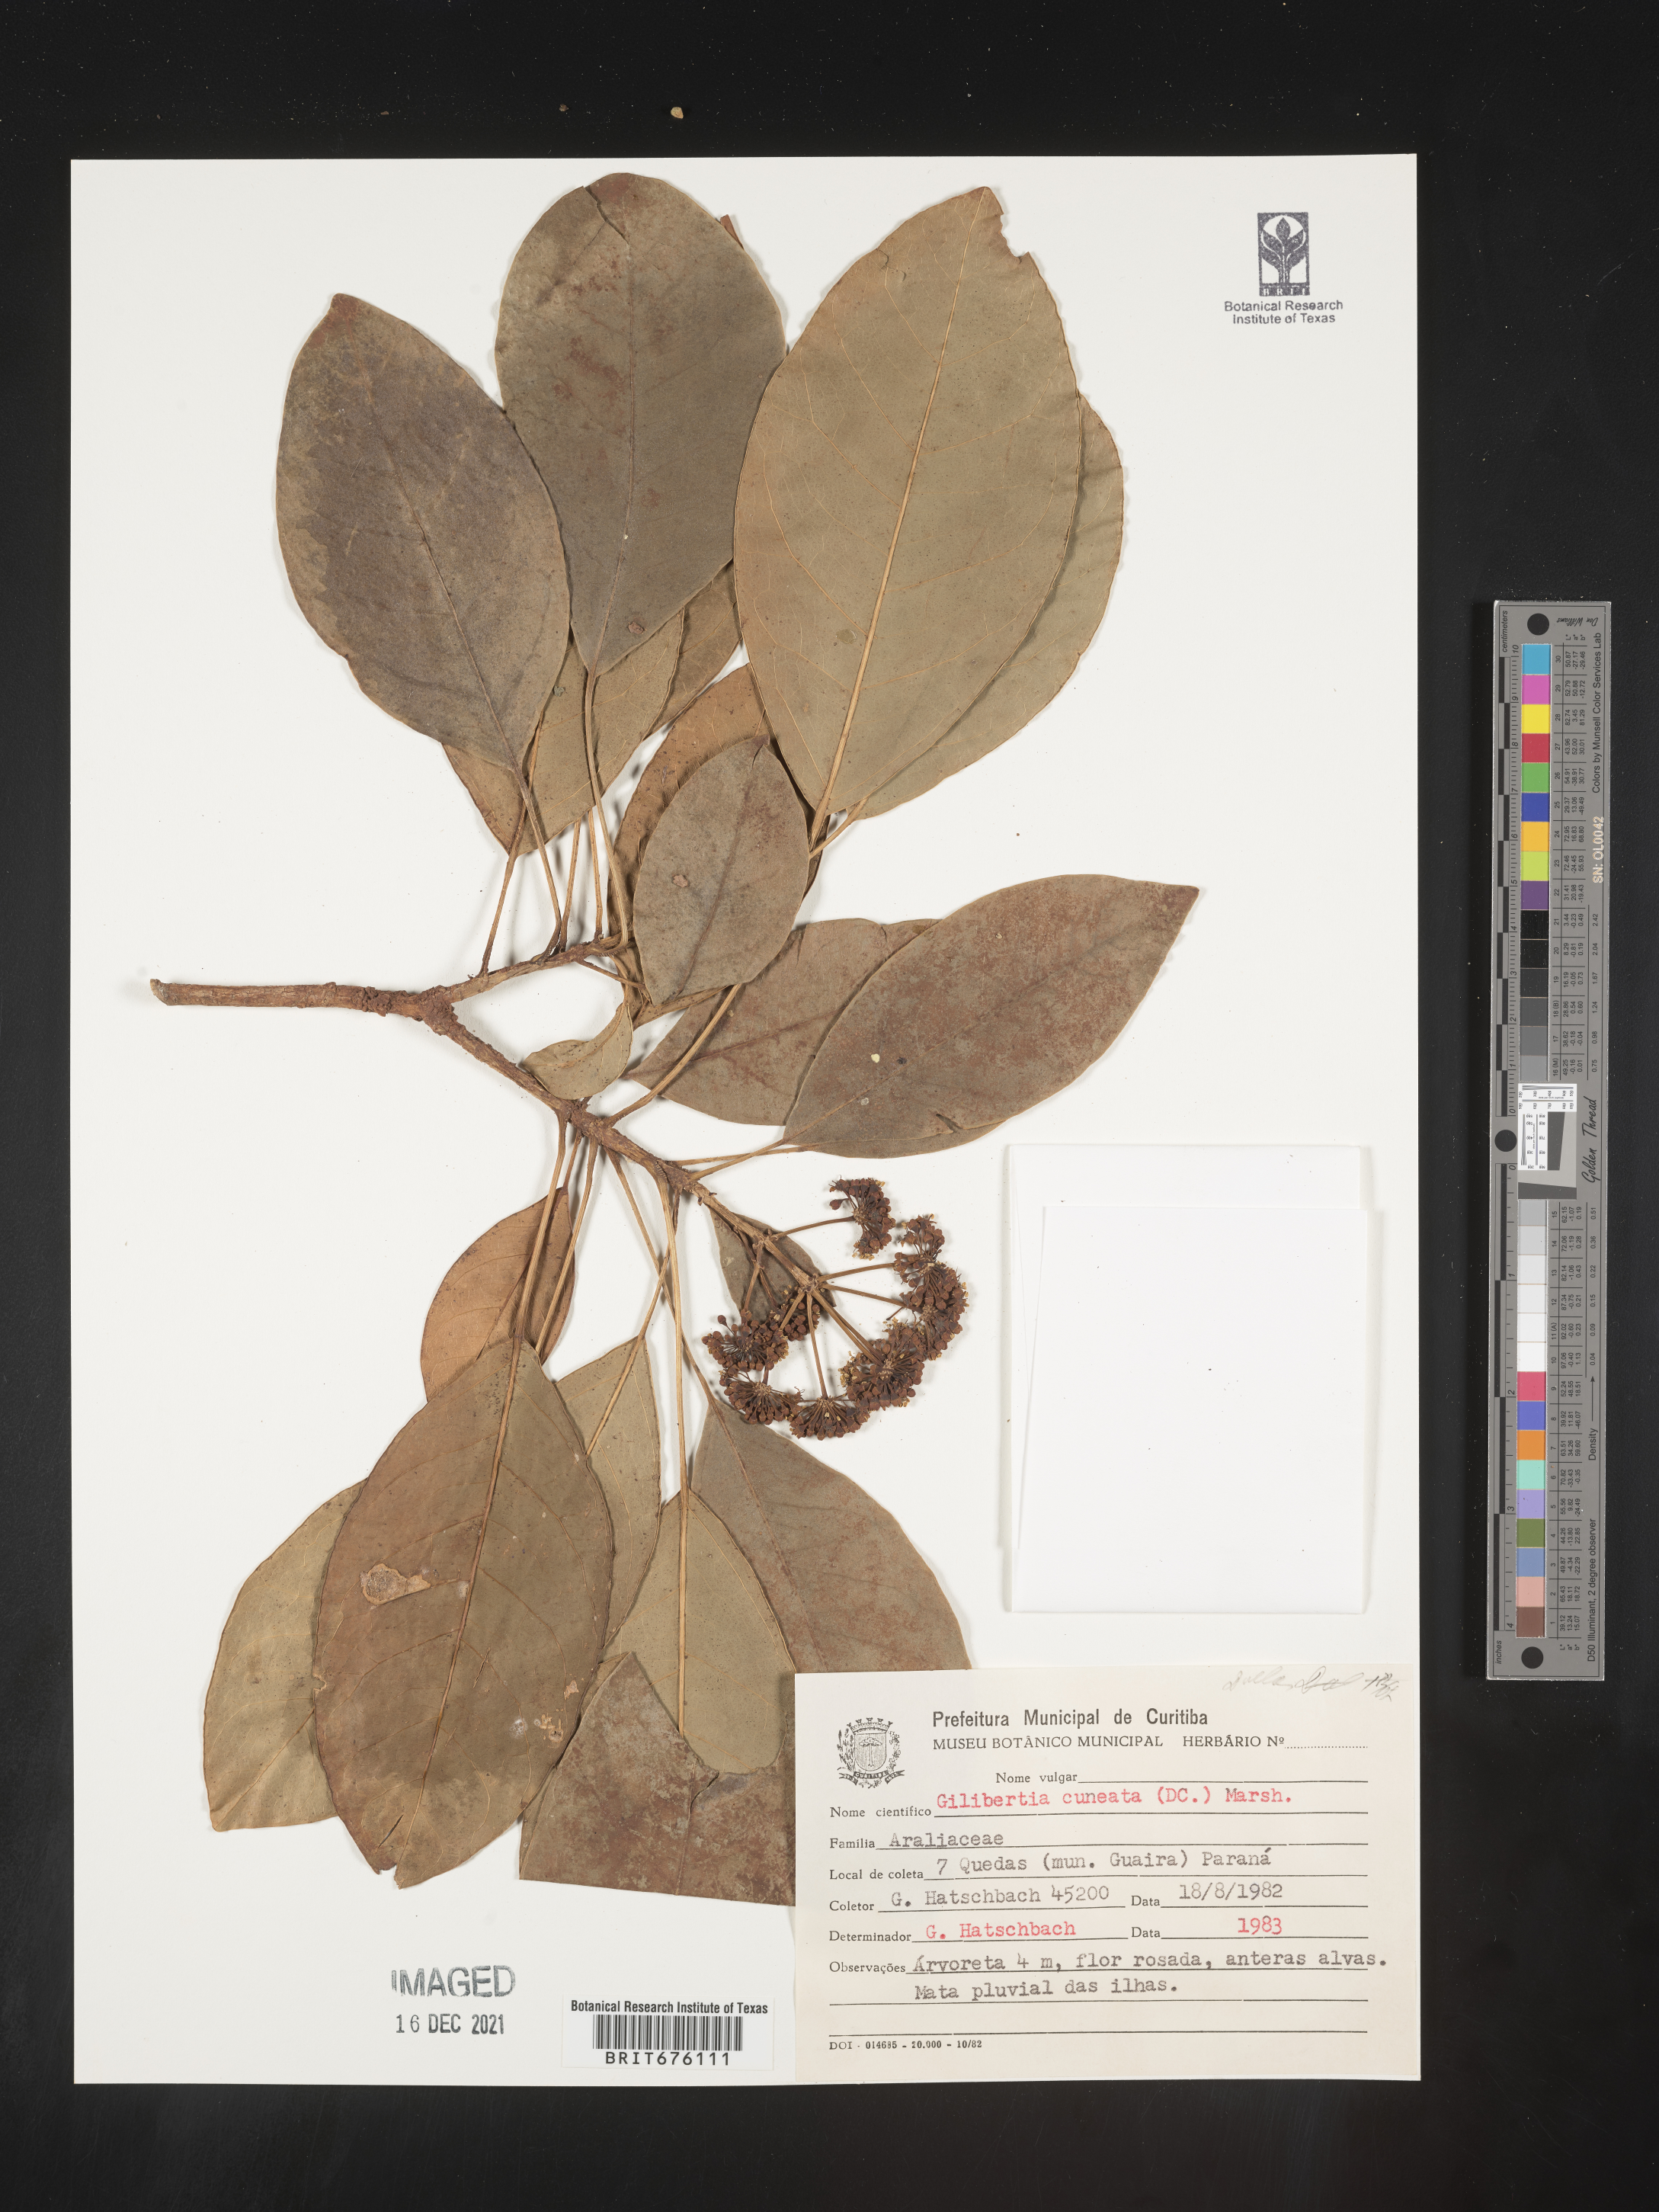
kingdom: Plantae
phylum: Tracheophyta
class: Magnoliopsida
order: Apiales
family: Araliaceae
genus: Dendropanax
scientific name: Dendropanax
